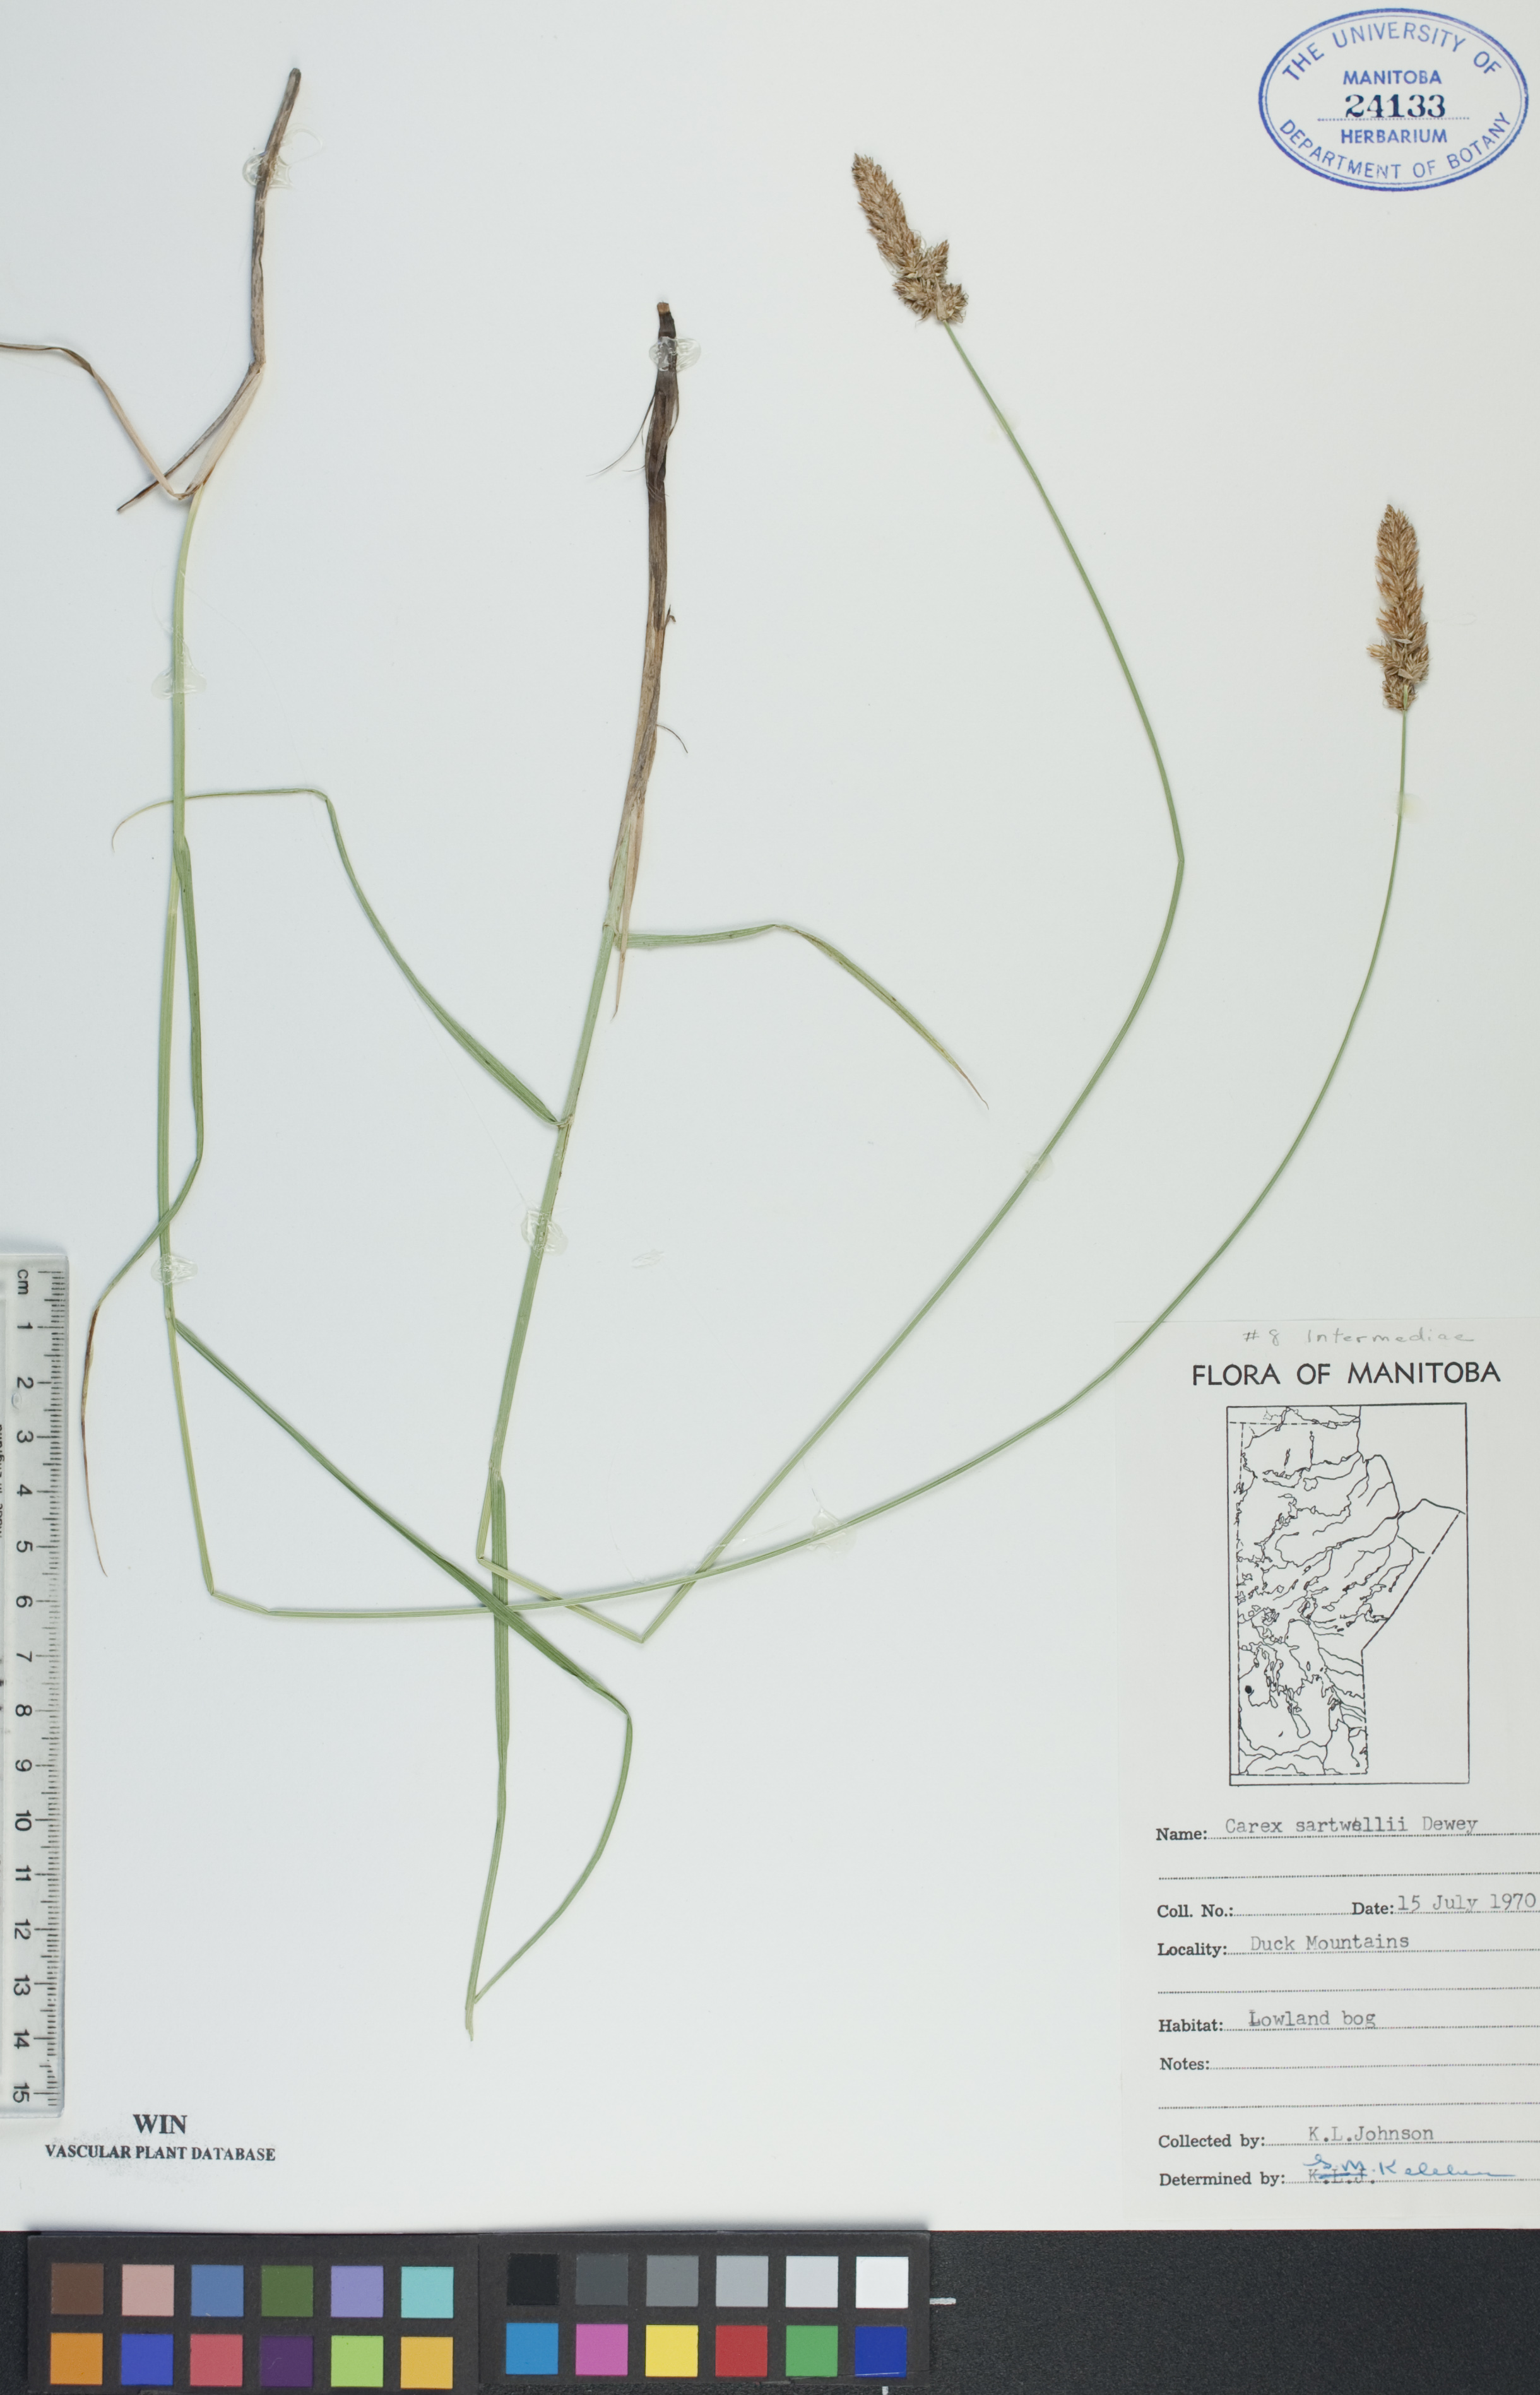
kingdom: Plantae
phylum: Tracheophyta
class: Liliopsida
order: Poales
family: Cyperaceae
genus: Carex
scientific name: Carex sartwellii
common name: Sartwell's sedge
